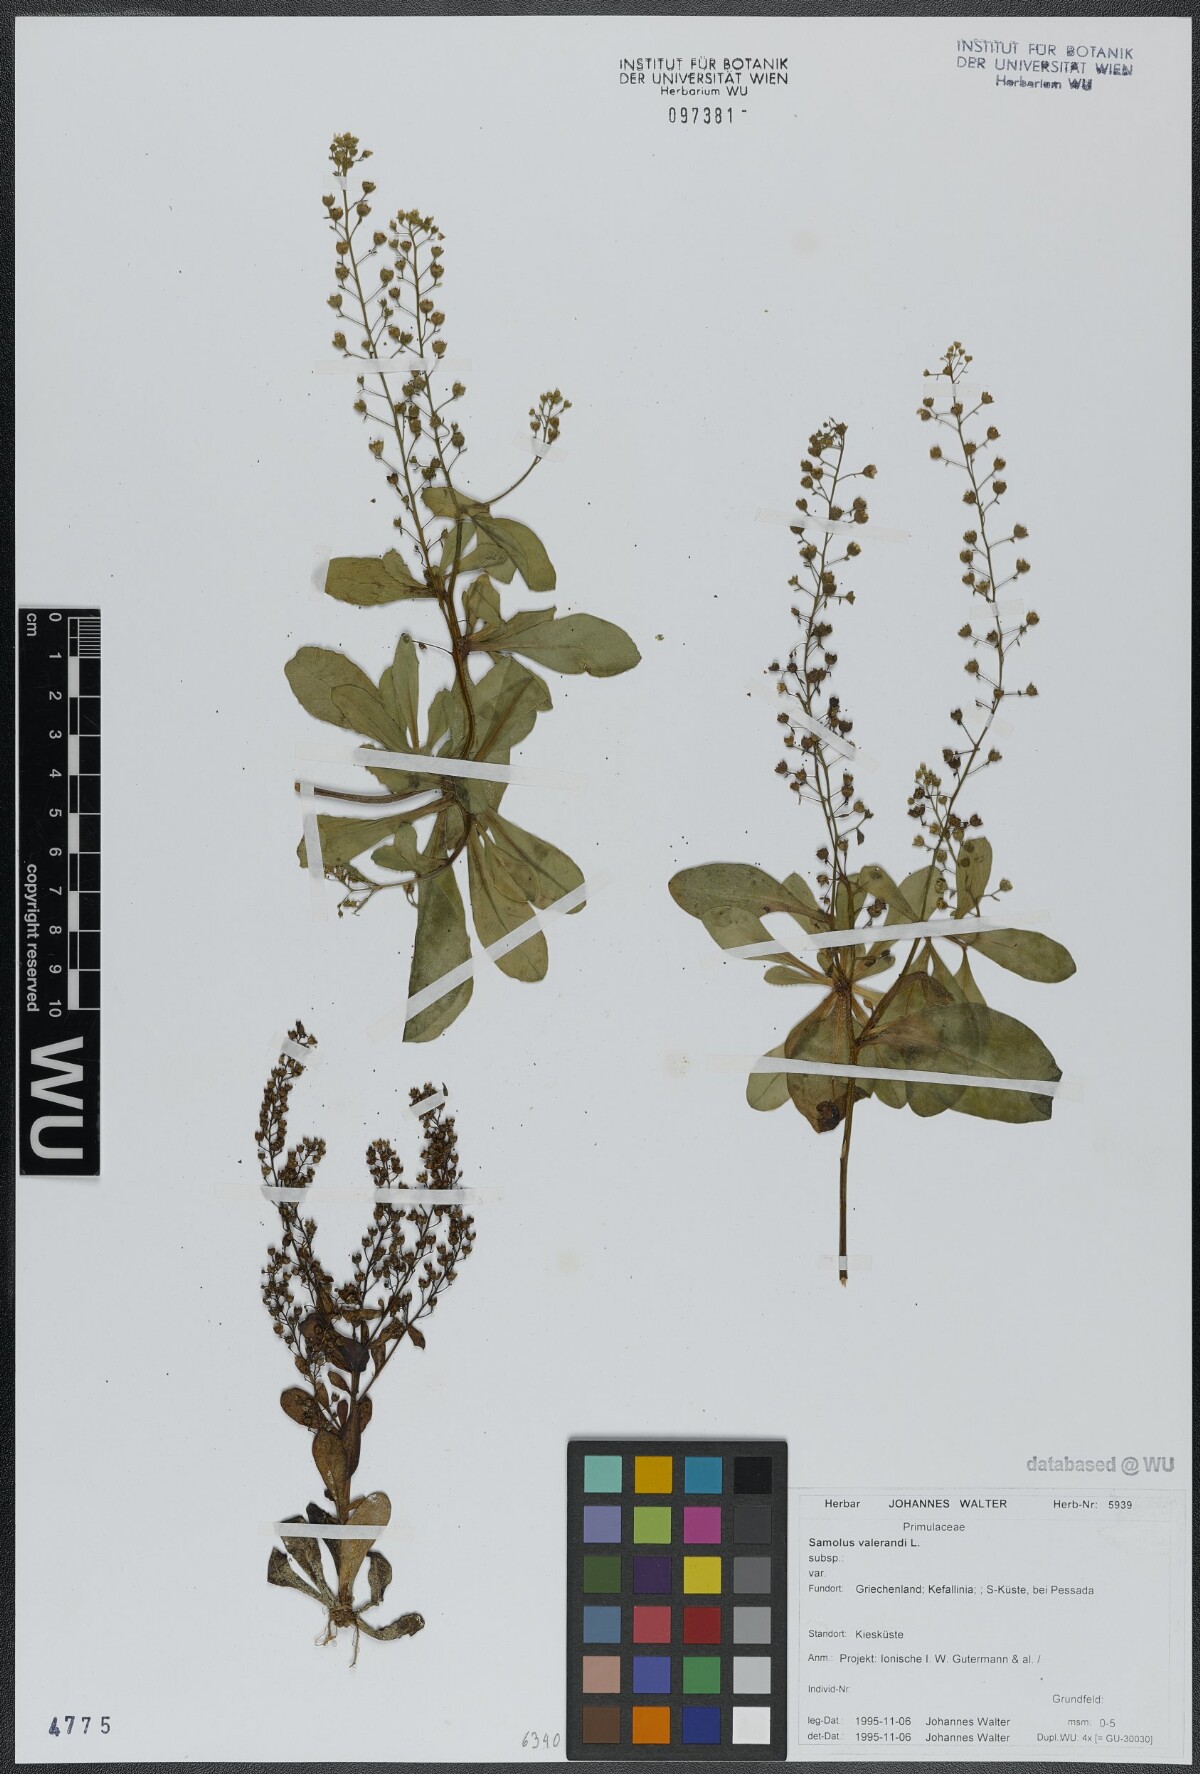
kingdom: Plantae
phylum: Tracheophyta
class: Magnoliopsida
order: Ericales
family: Primulaceae
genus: Samolus
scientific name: Samolus valerandi
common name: Brookweed
